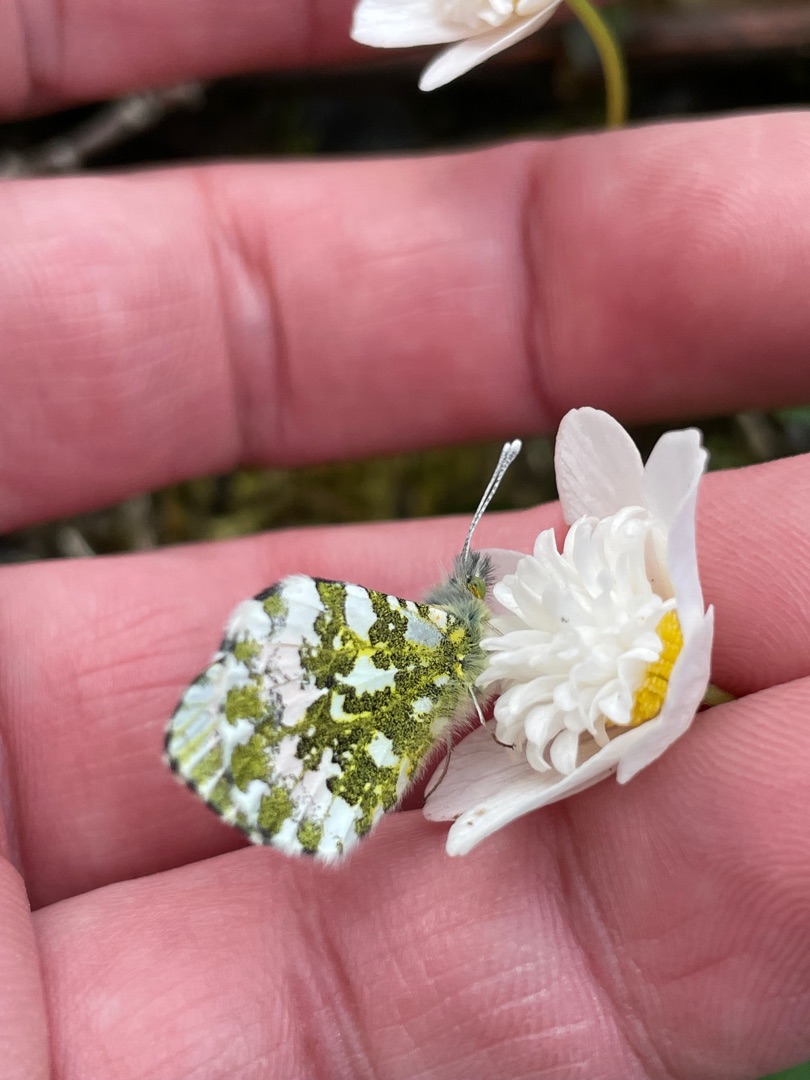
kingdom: Animalia
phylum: Arthropoda
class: Insecta
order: Lepidoptera
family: Pieridae
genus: Anthocharis
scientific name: Anthocharis cardamines
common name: Aurora
